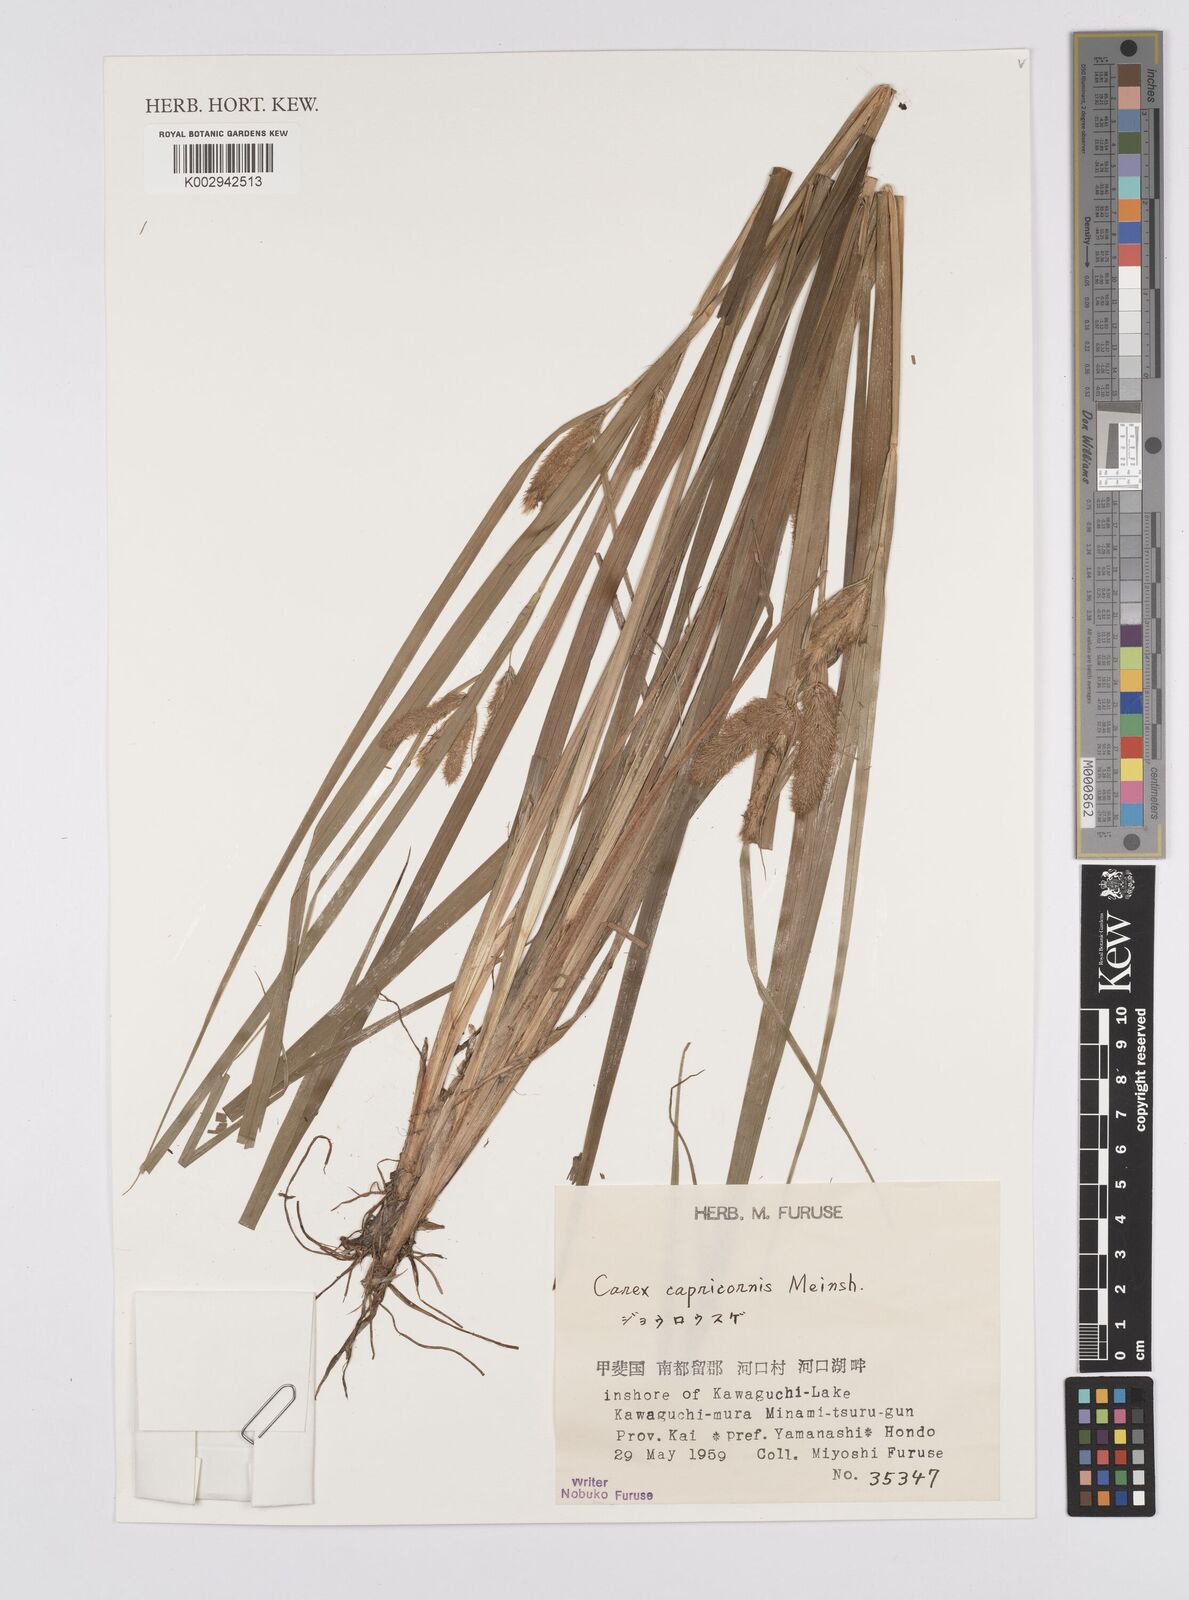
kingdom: Plantae
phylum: Tracheophyta
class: Liliopsida
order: Poales
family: Cyperaceae
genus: Carex
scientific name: Carex capricornis
